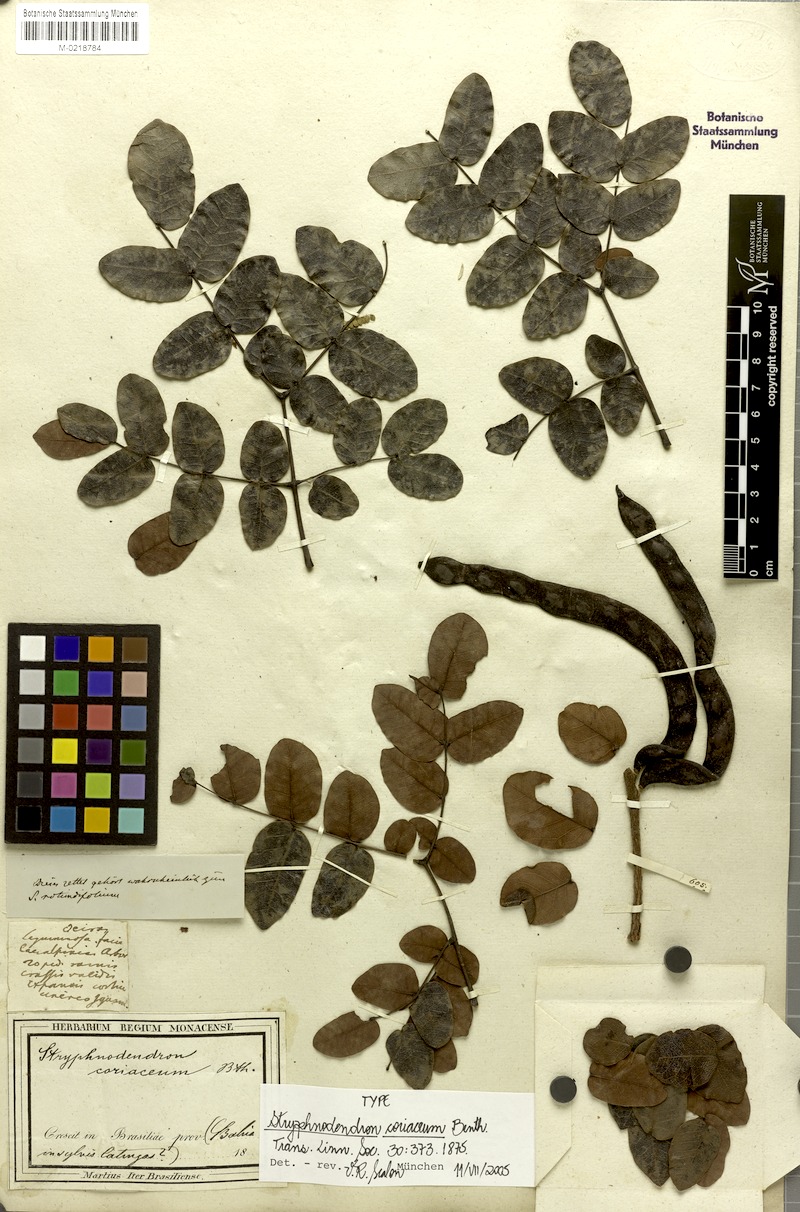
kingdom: Plantae
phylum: Tracheophyta
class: Magnoliopsida
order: Fabales
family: Fabaceae
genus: Stryphnodendron
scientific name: Stryphnodendron coriaceum
